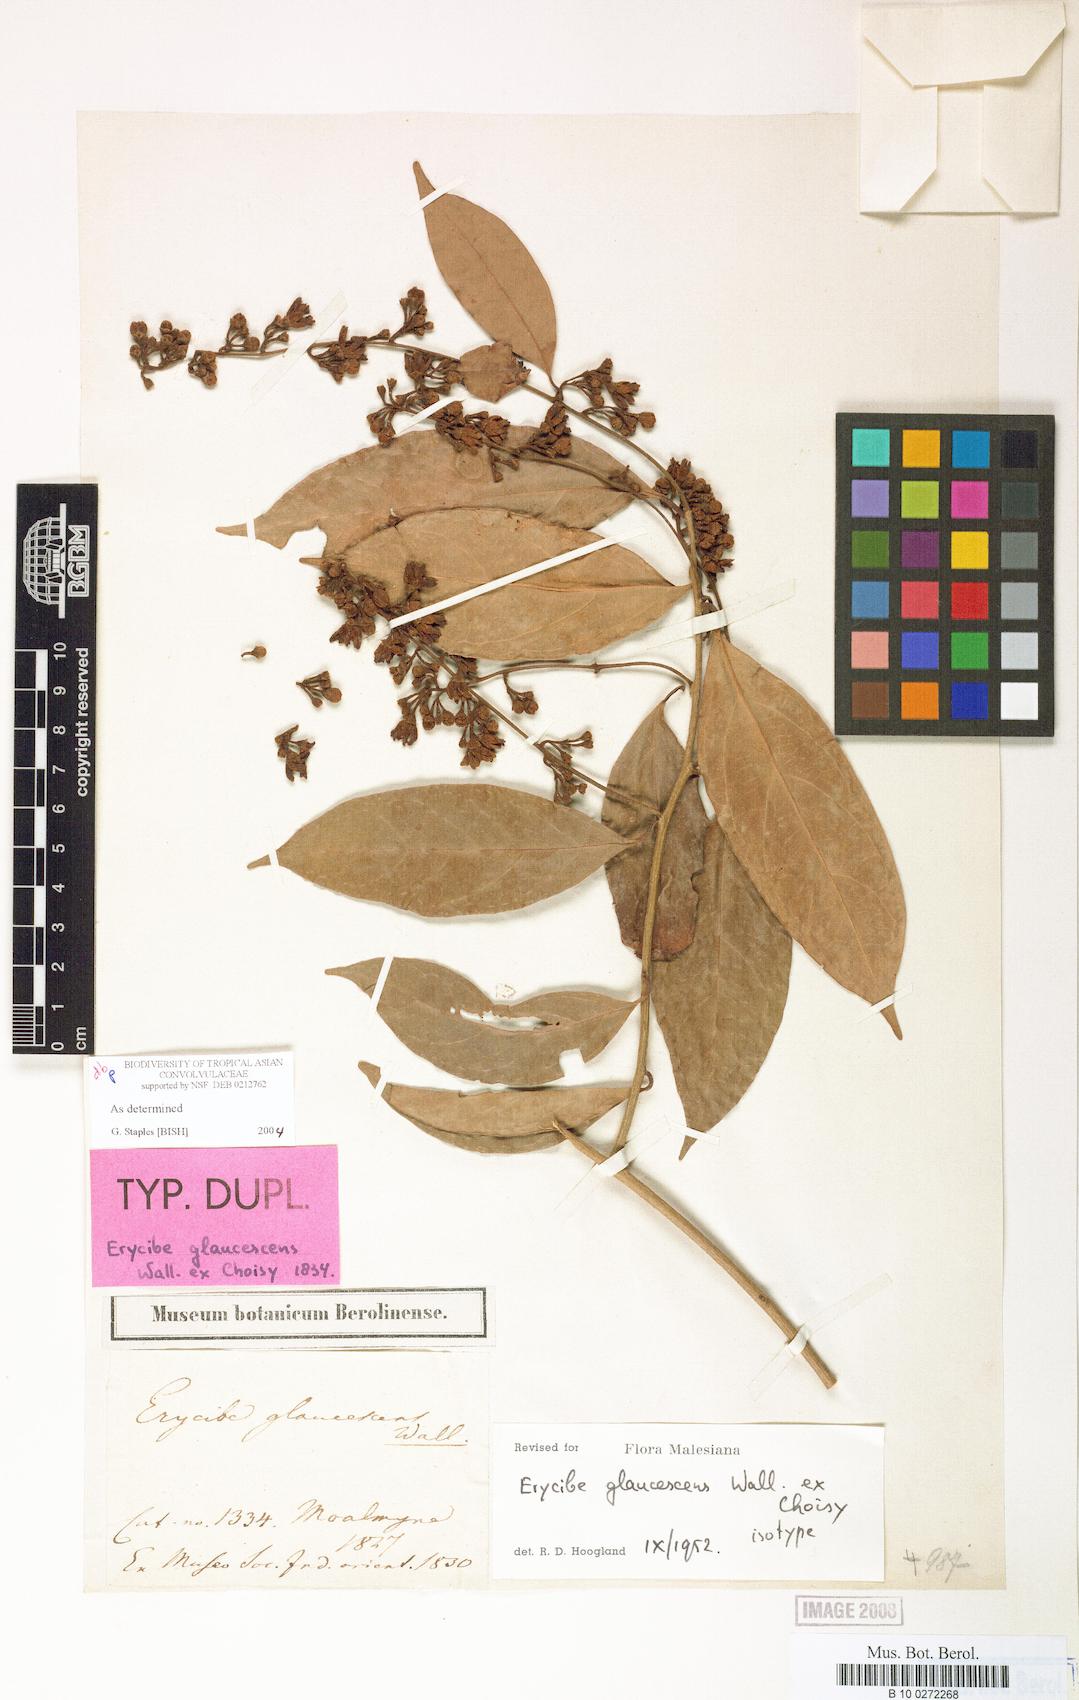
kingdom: Plantae
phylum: Tracheophyta
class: Magnoliopsida
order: Solanales
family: Convolvulaceae
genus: Erycibe
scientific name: Erycibe glaucescens
